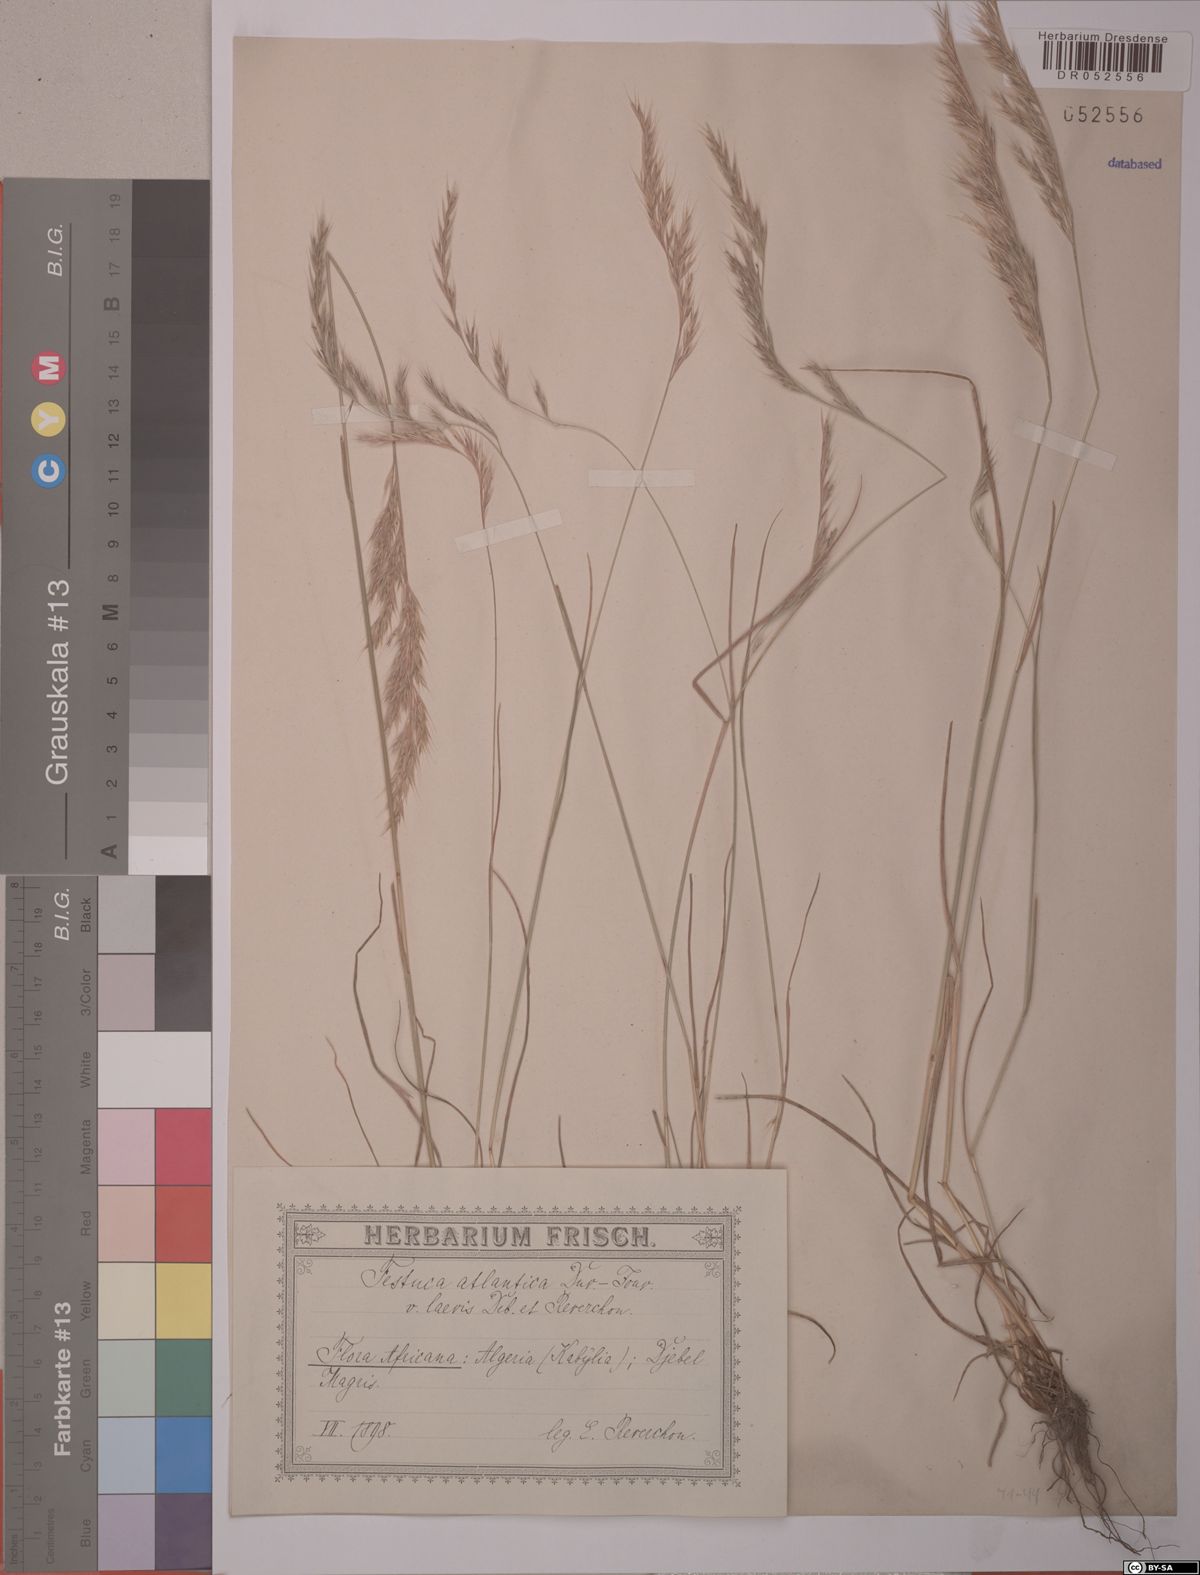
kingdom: Plantae
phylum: Tracheophyta
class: Liliopsida
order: Poales
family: Poaceae
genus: Festuca
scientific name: Festuca atlantica
